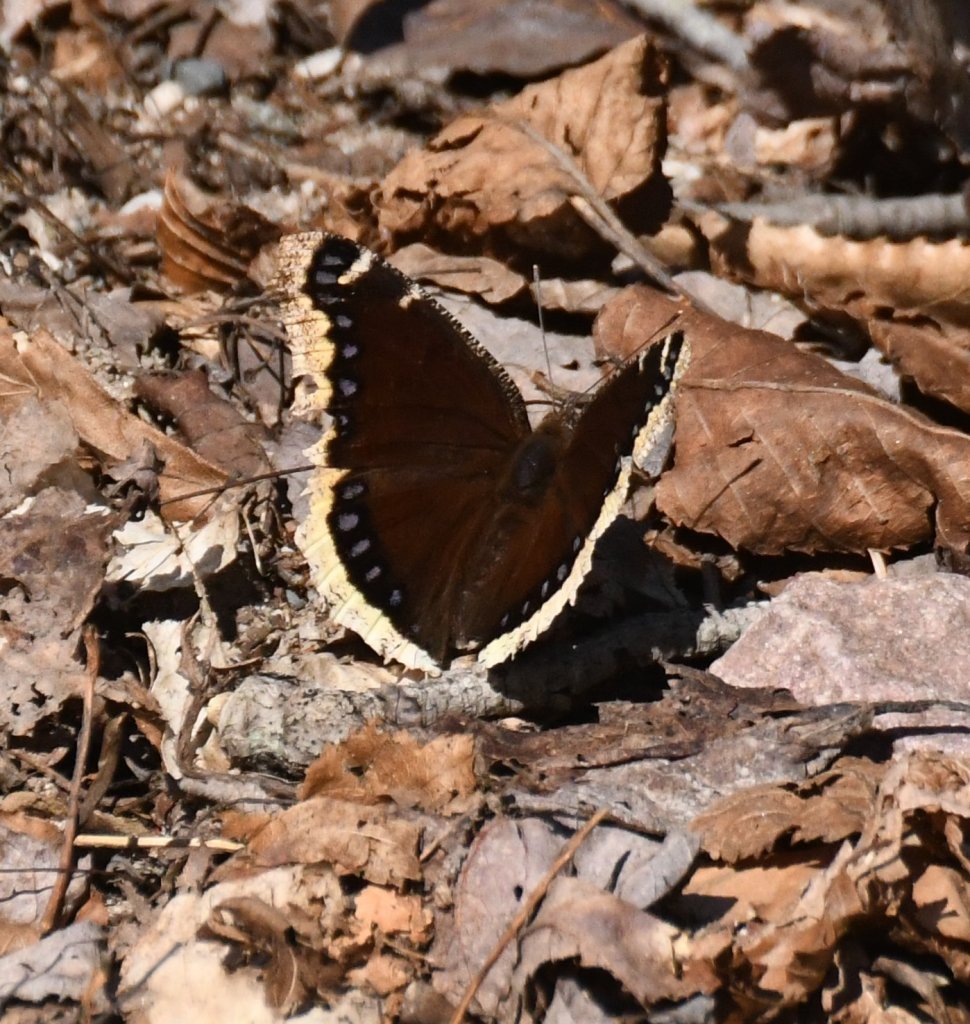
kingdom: Animalia
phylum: Arthropoda
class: Insecta
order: Lepidoptera
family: Nymphalidae
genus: Nymphalis
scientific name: Nymphalis antiopa
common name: Mourning Cloak
